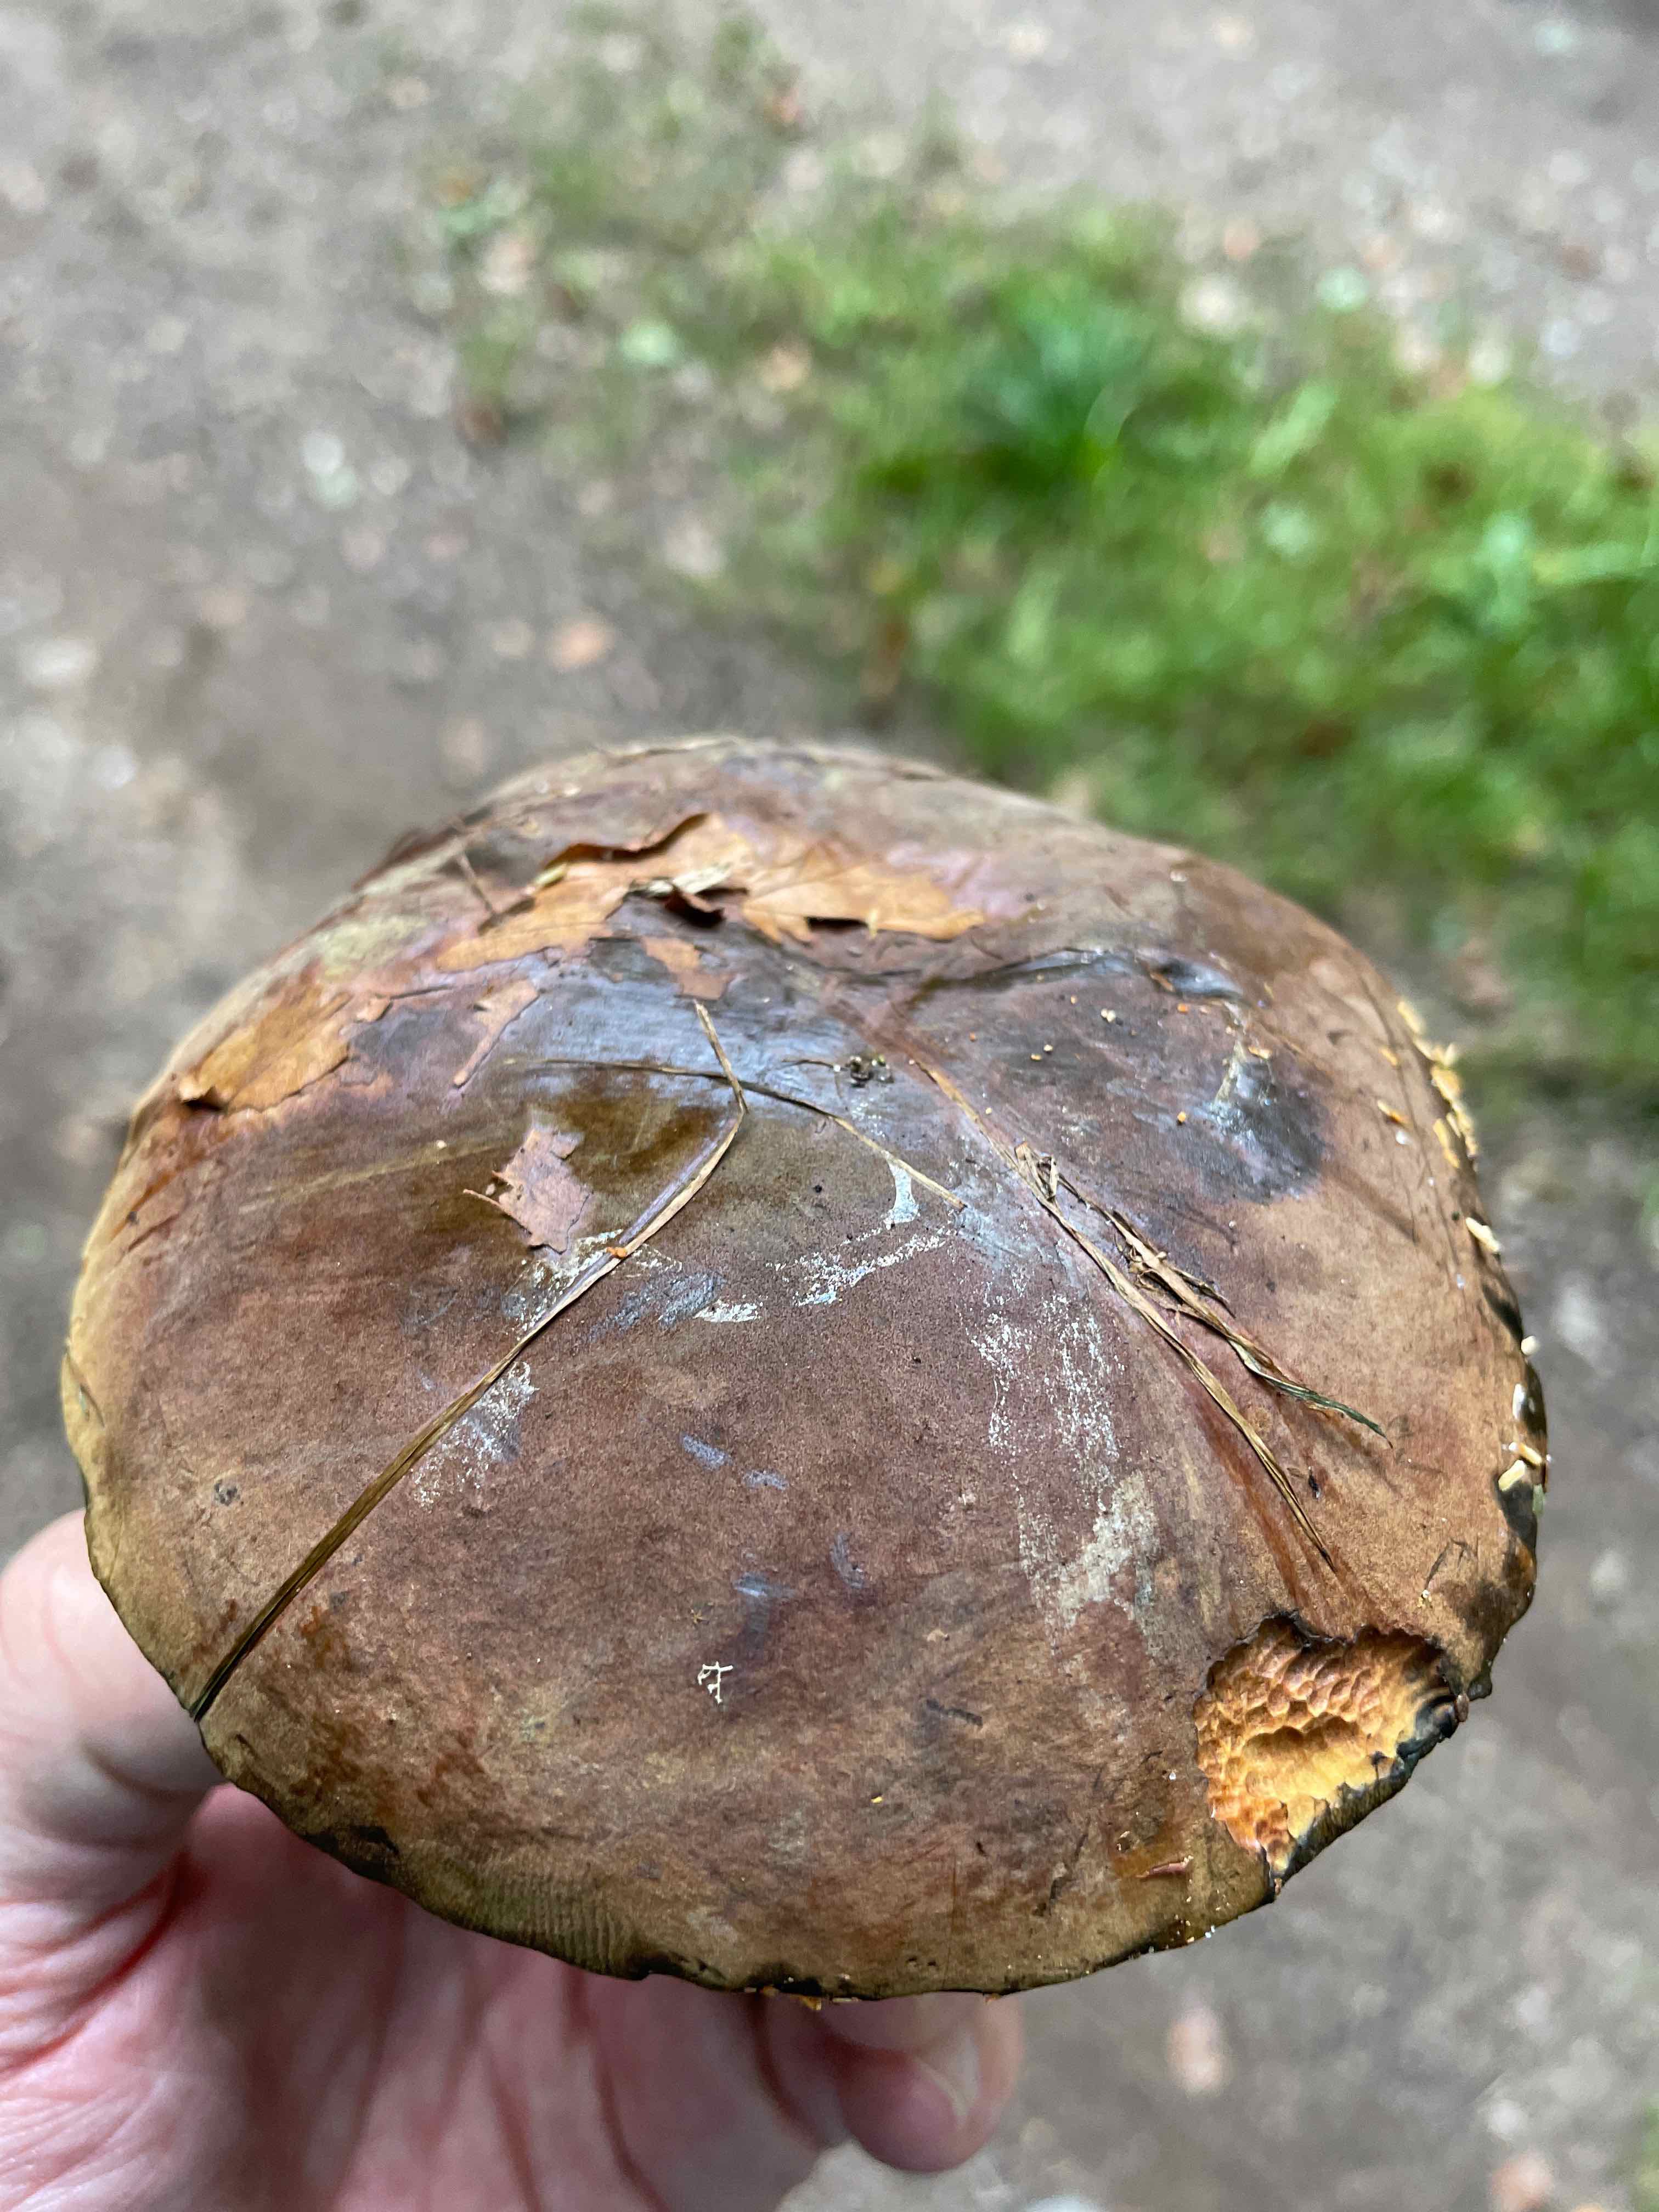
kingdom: Fungi
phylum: Basidiomycota
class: Agaricomycetes
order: Boletales
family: Boletaceae
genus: Neoboletus
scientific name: Neoboletus erythropus
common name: punktstokket indigorørhat
